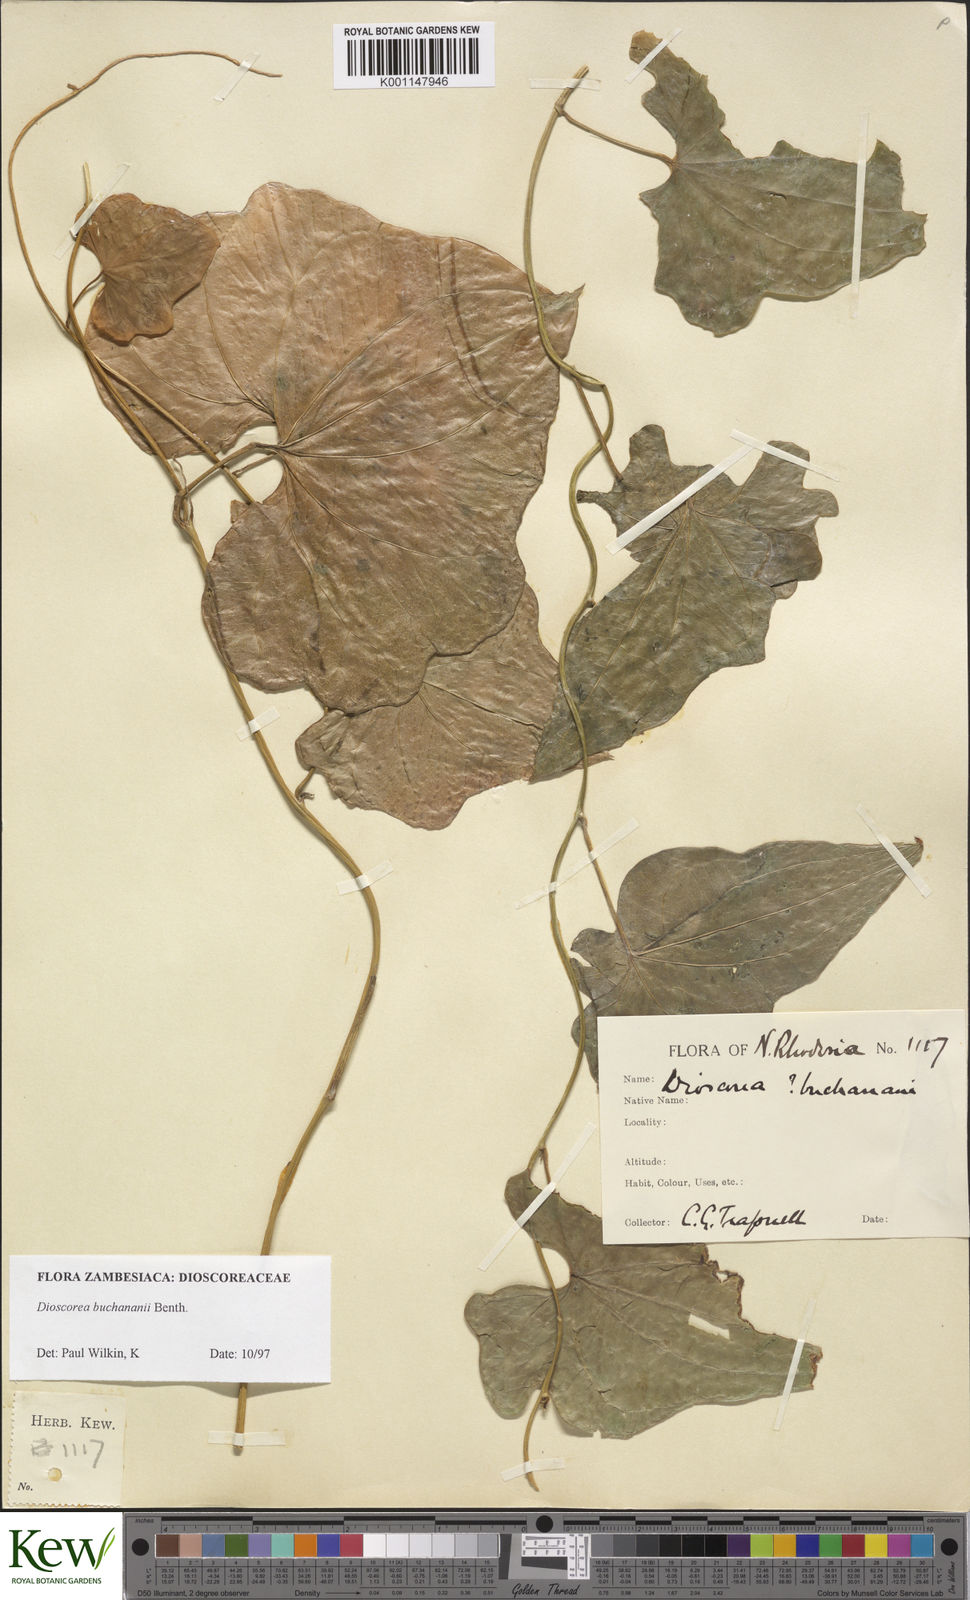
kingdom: Plantae
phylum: Tracheophyta
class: Liliopsida
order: Dioscoreales
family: Dioscoreaceae
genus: Dioscorea
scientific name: Dioscorea buchananii
